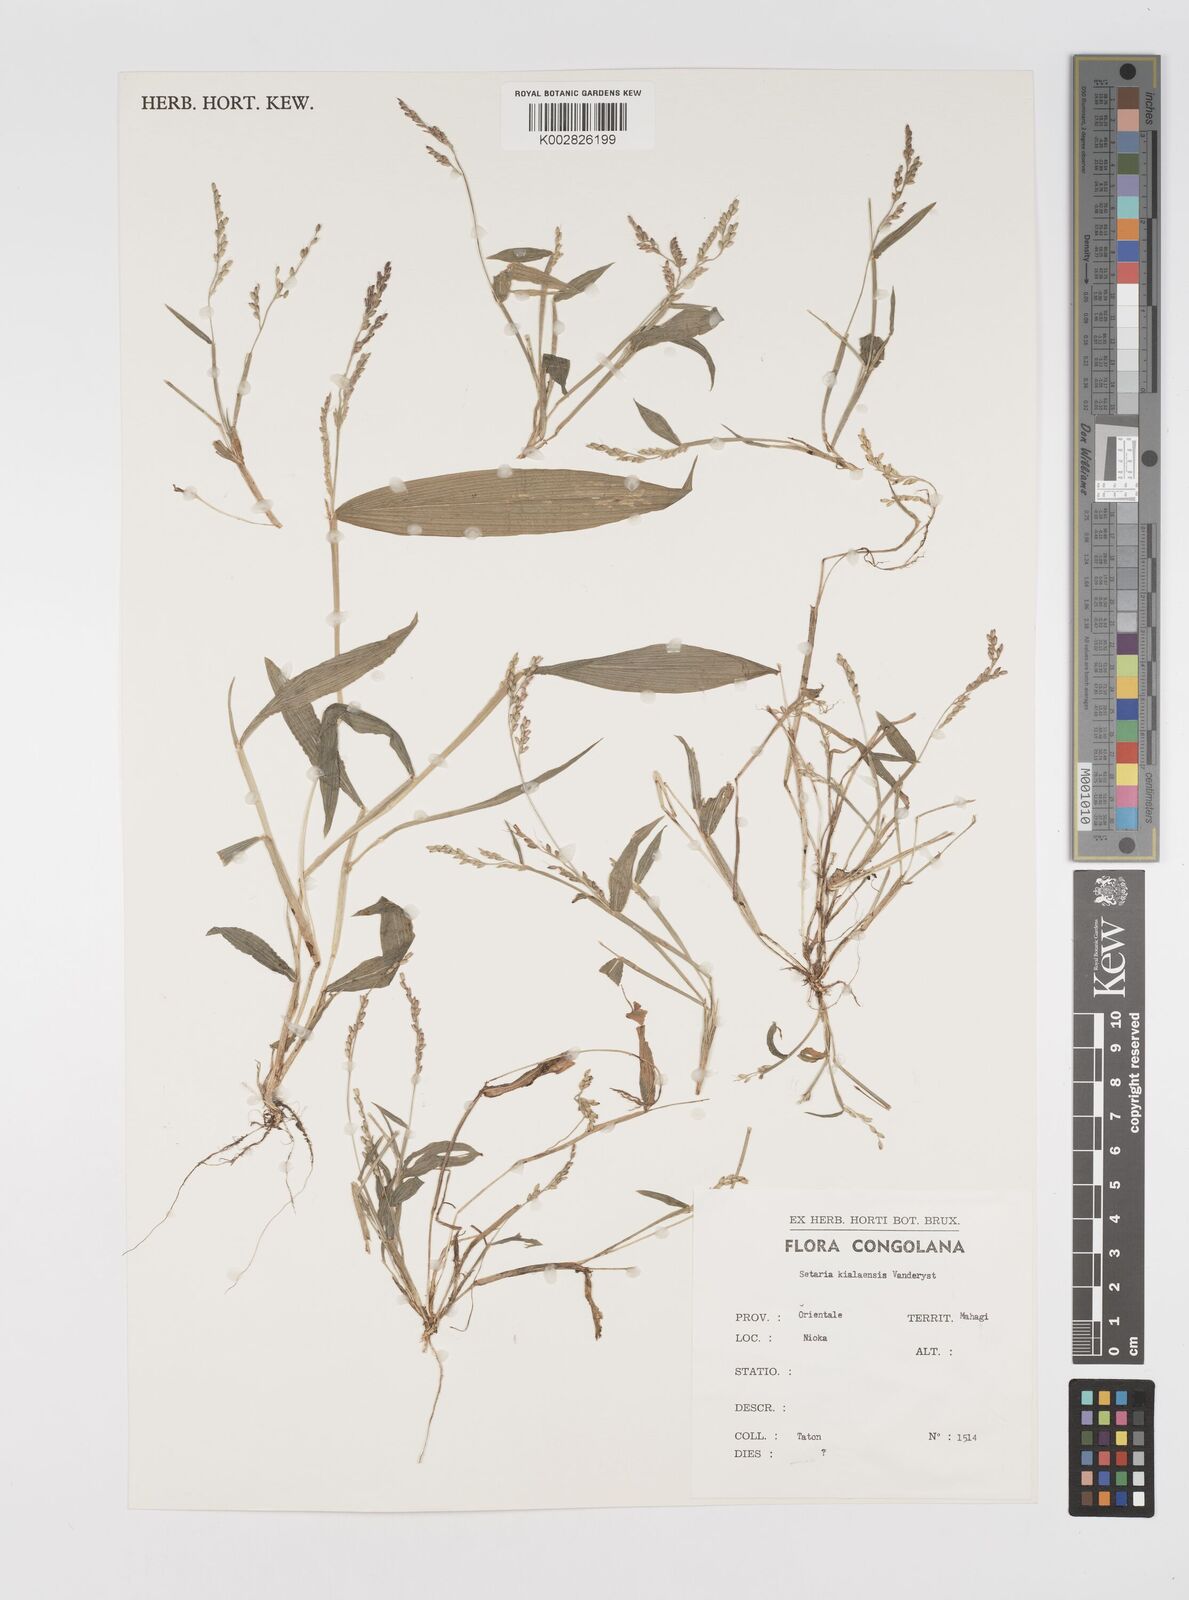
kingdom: Plantae
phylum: Tracheophyta
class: Liliopsida
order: Poales
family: Poaceae
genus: Setaria
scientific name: Setaria homonyma
